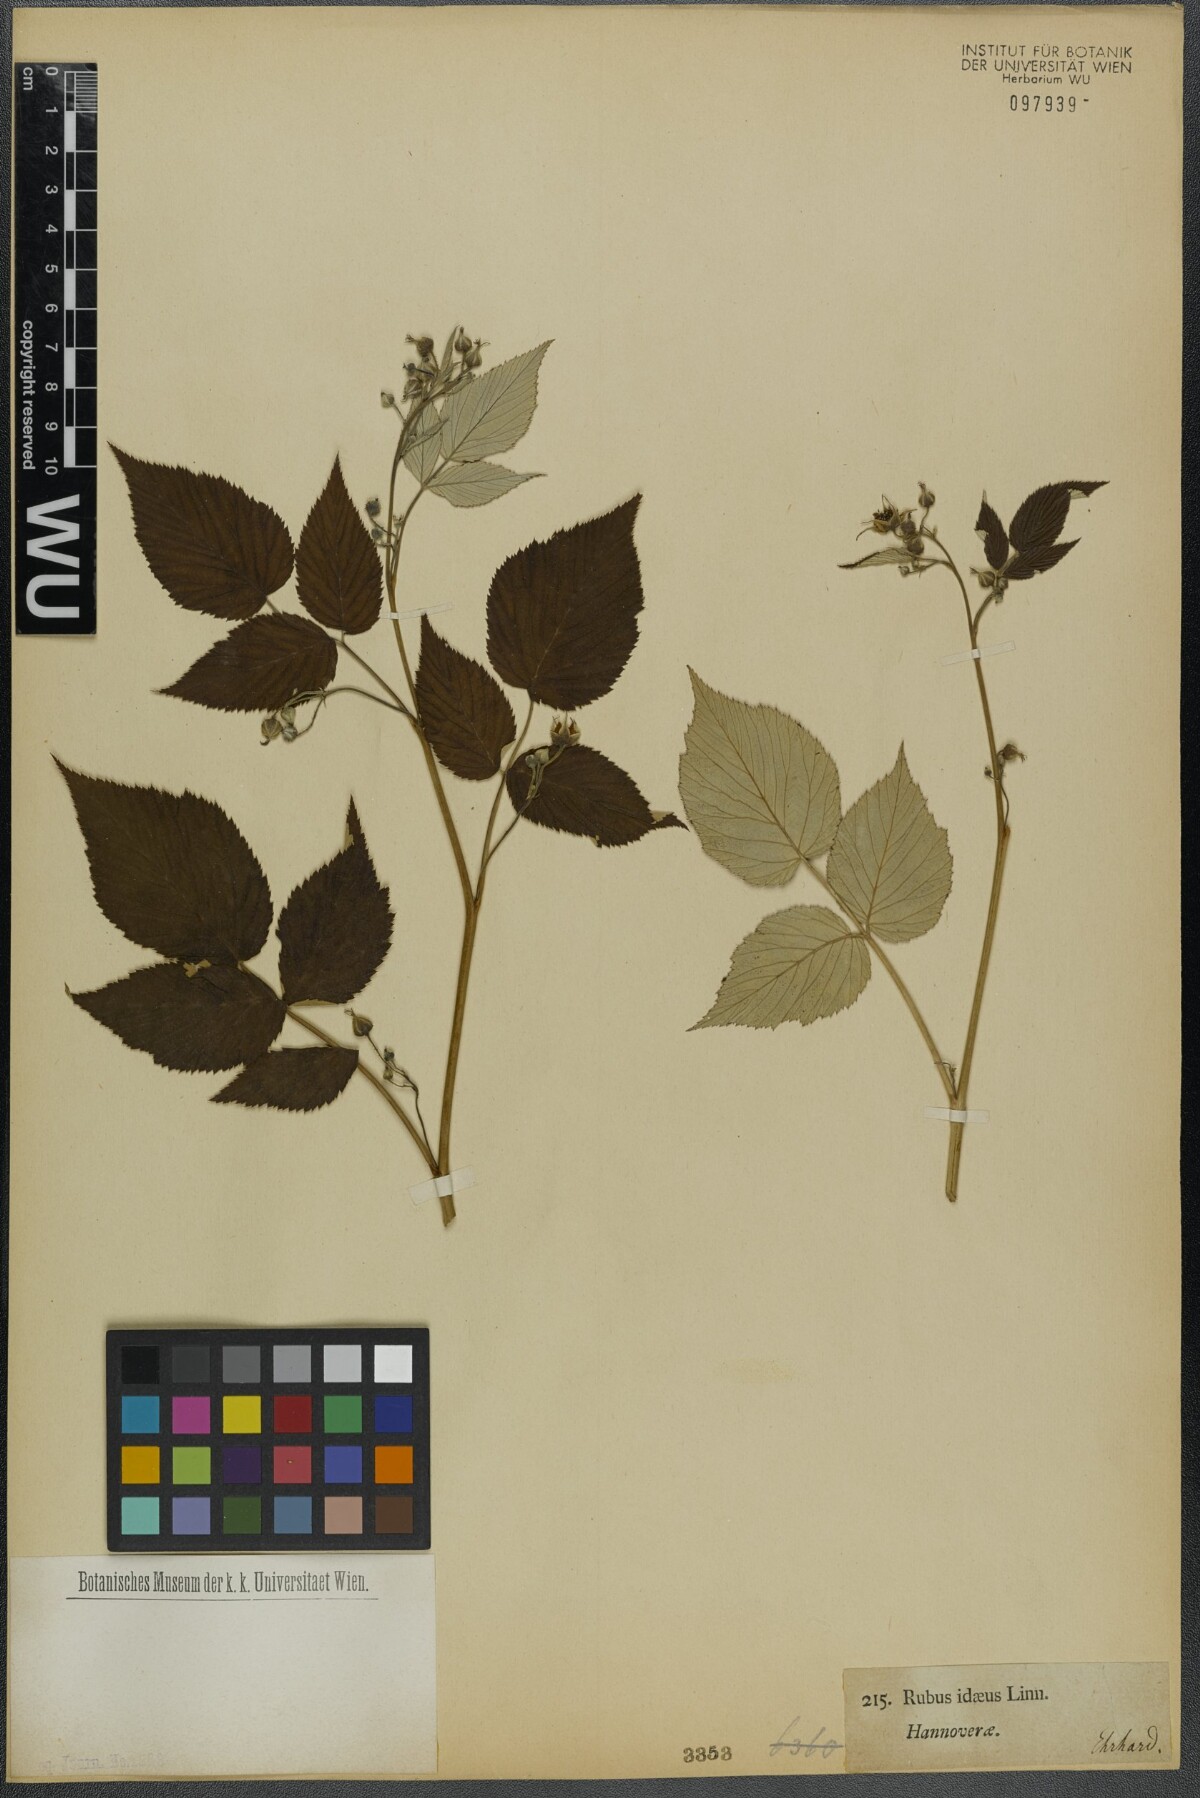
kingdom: Plantae
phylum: Tracheophyta
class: Magnoliopsida
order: Rosales
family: Rosaceae
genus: Rubus
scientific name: Rubus idaeus
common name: Raspberry
